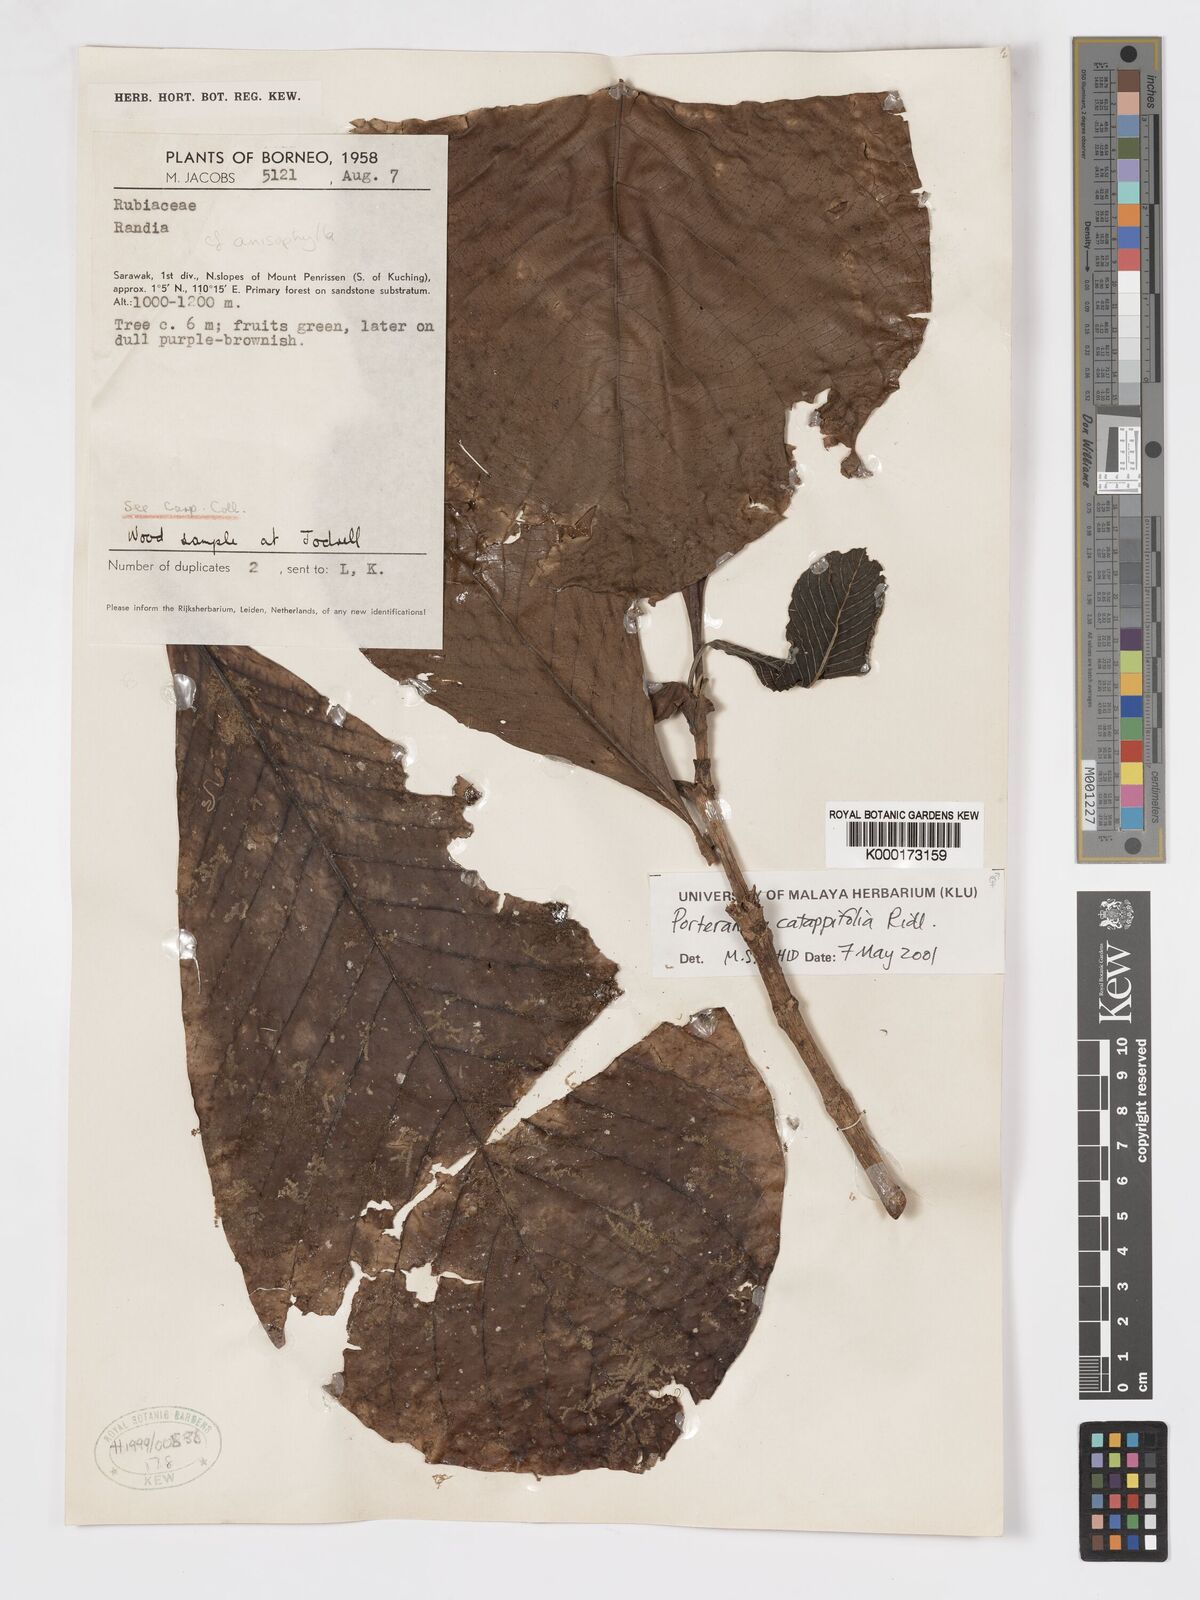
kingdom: Plantae
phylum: Tracheophyta
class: Magnoliopsida
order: Gentianales
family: Rubiaceae
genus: Porterandia
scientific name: Porterandia catappifolia
